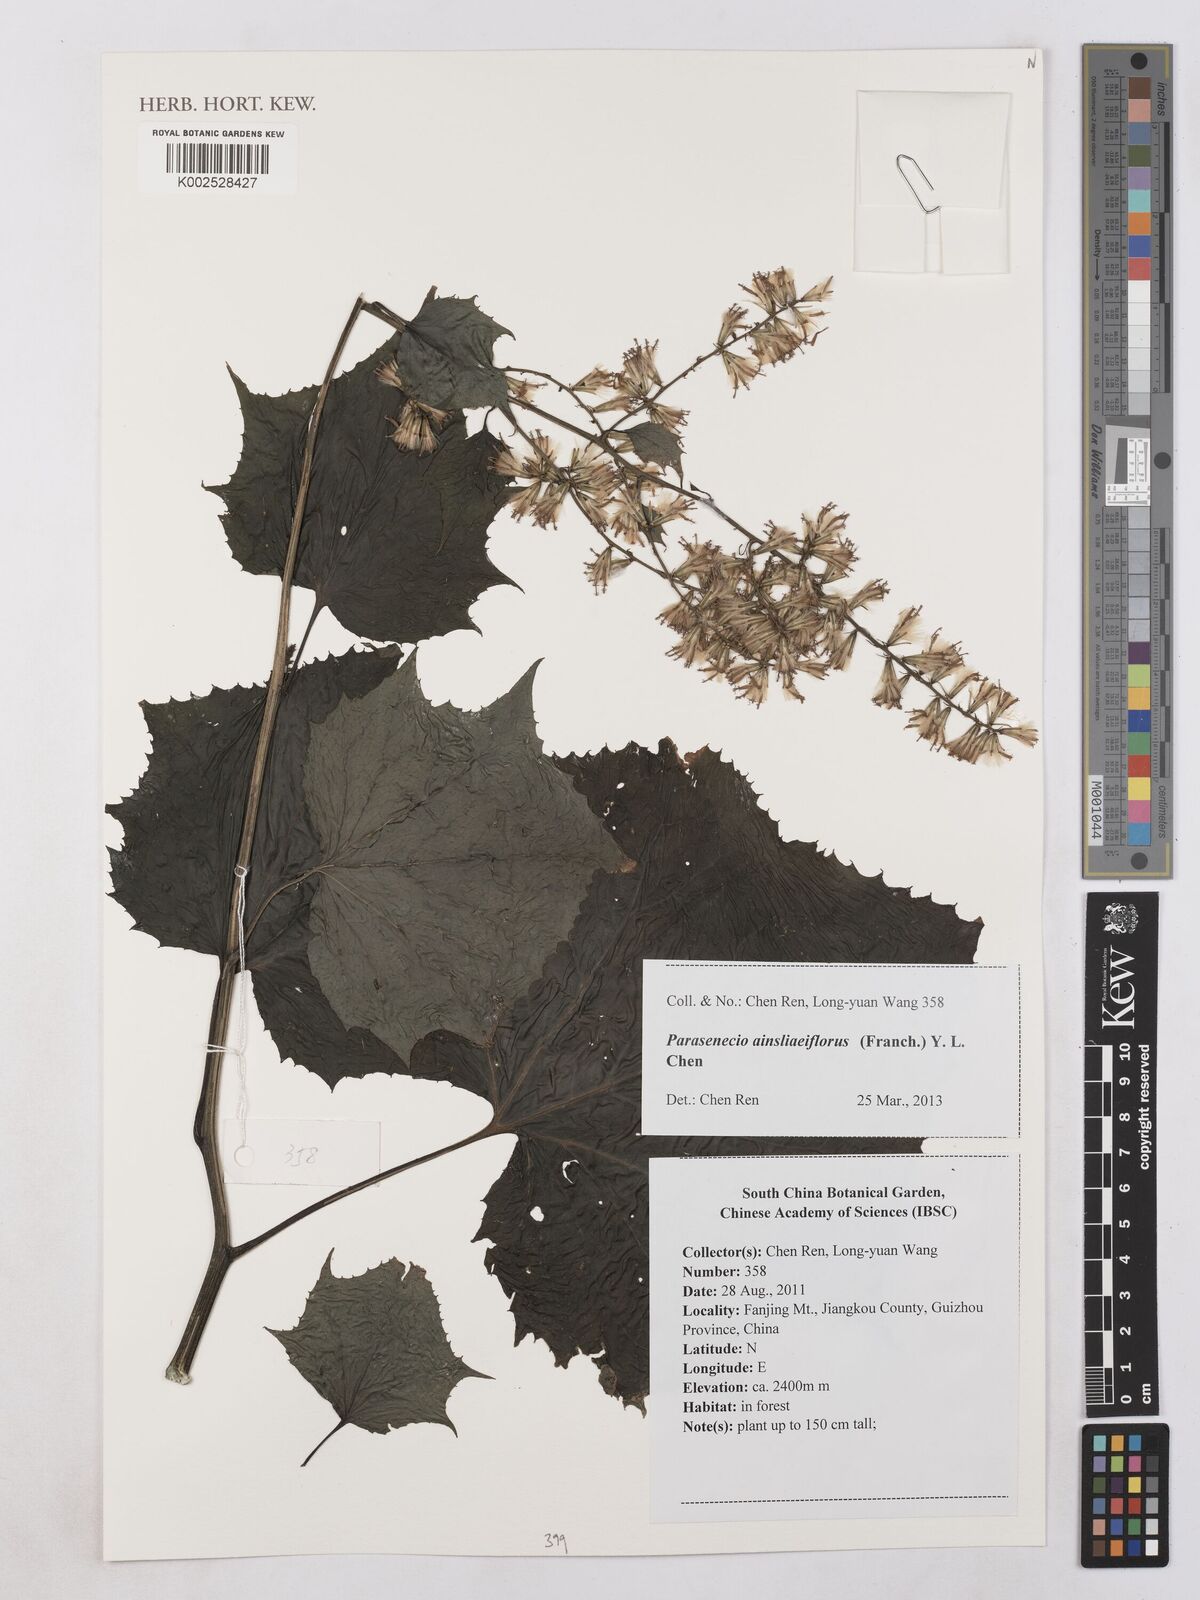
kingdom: Plantae
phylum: Tracheophyta
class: Magnoliopsida
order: Asterales
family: Asteraceae
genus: Parasenecio
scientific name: Parasenecio ainsliaeiflorus
